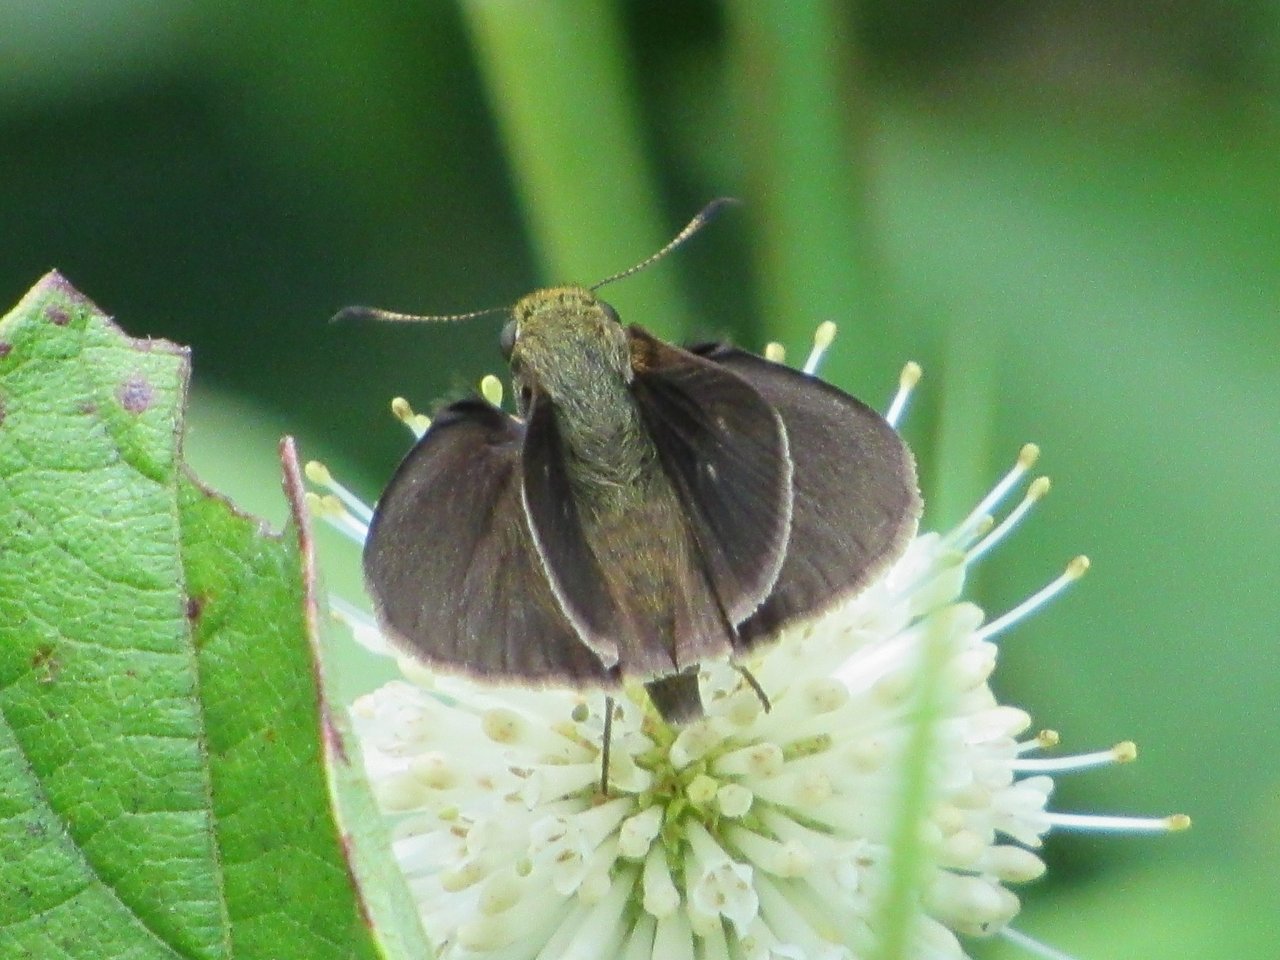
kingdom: Animalia
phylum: Arthropoda
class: Insecta
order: Lepidoptera
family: Hesperiidae
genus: Euphyes
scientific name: Euphyes vestris
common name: Dun Skipper
